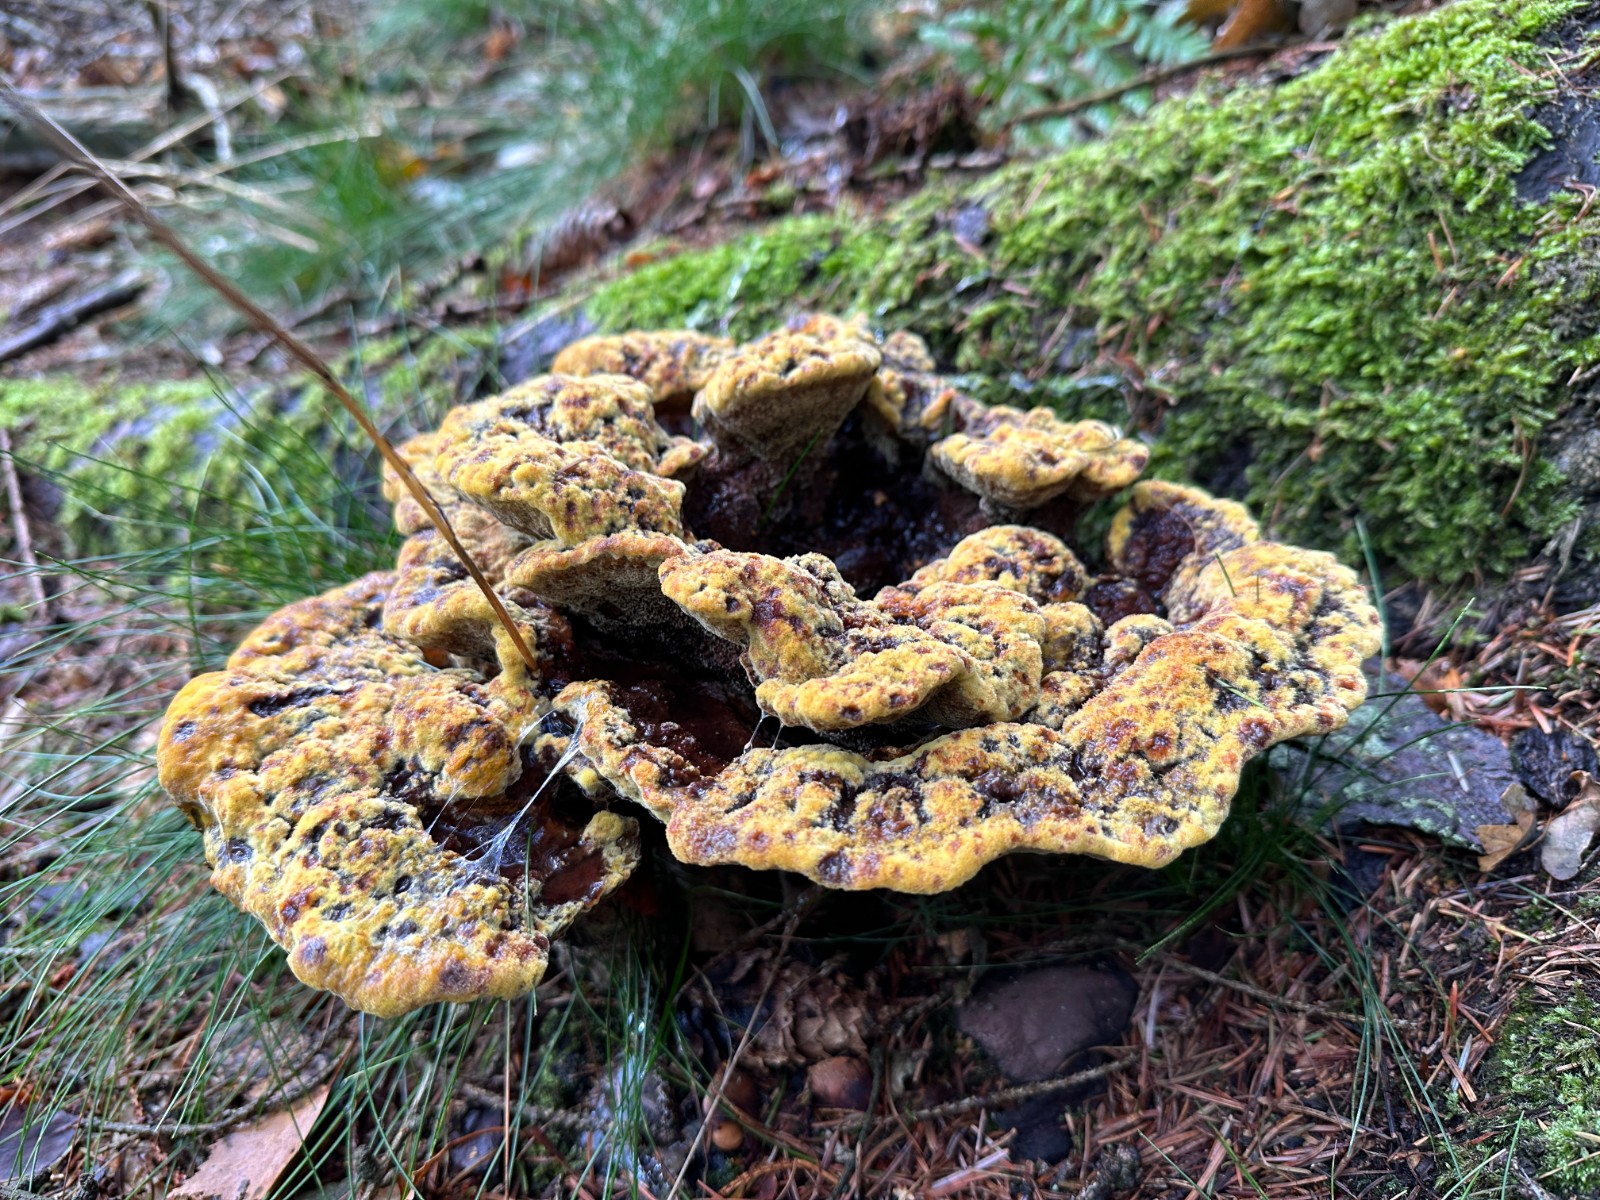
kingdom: Fungi
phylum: Basidiomycota
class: Agaricomycetes
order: Polyporales
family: Laetiporaceae
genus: Phaeolus
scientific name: Phaeolus schweinitzii
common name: brunporesvamp
